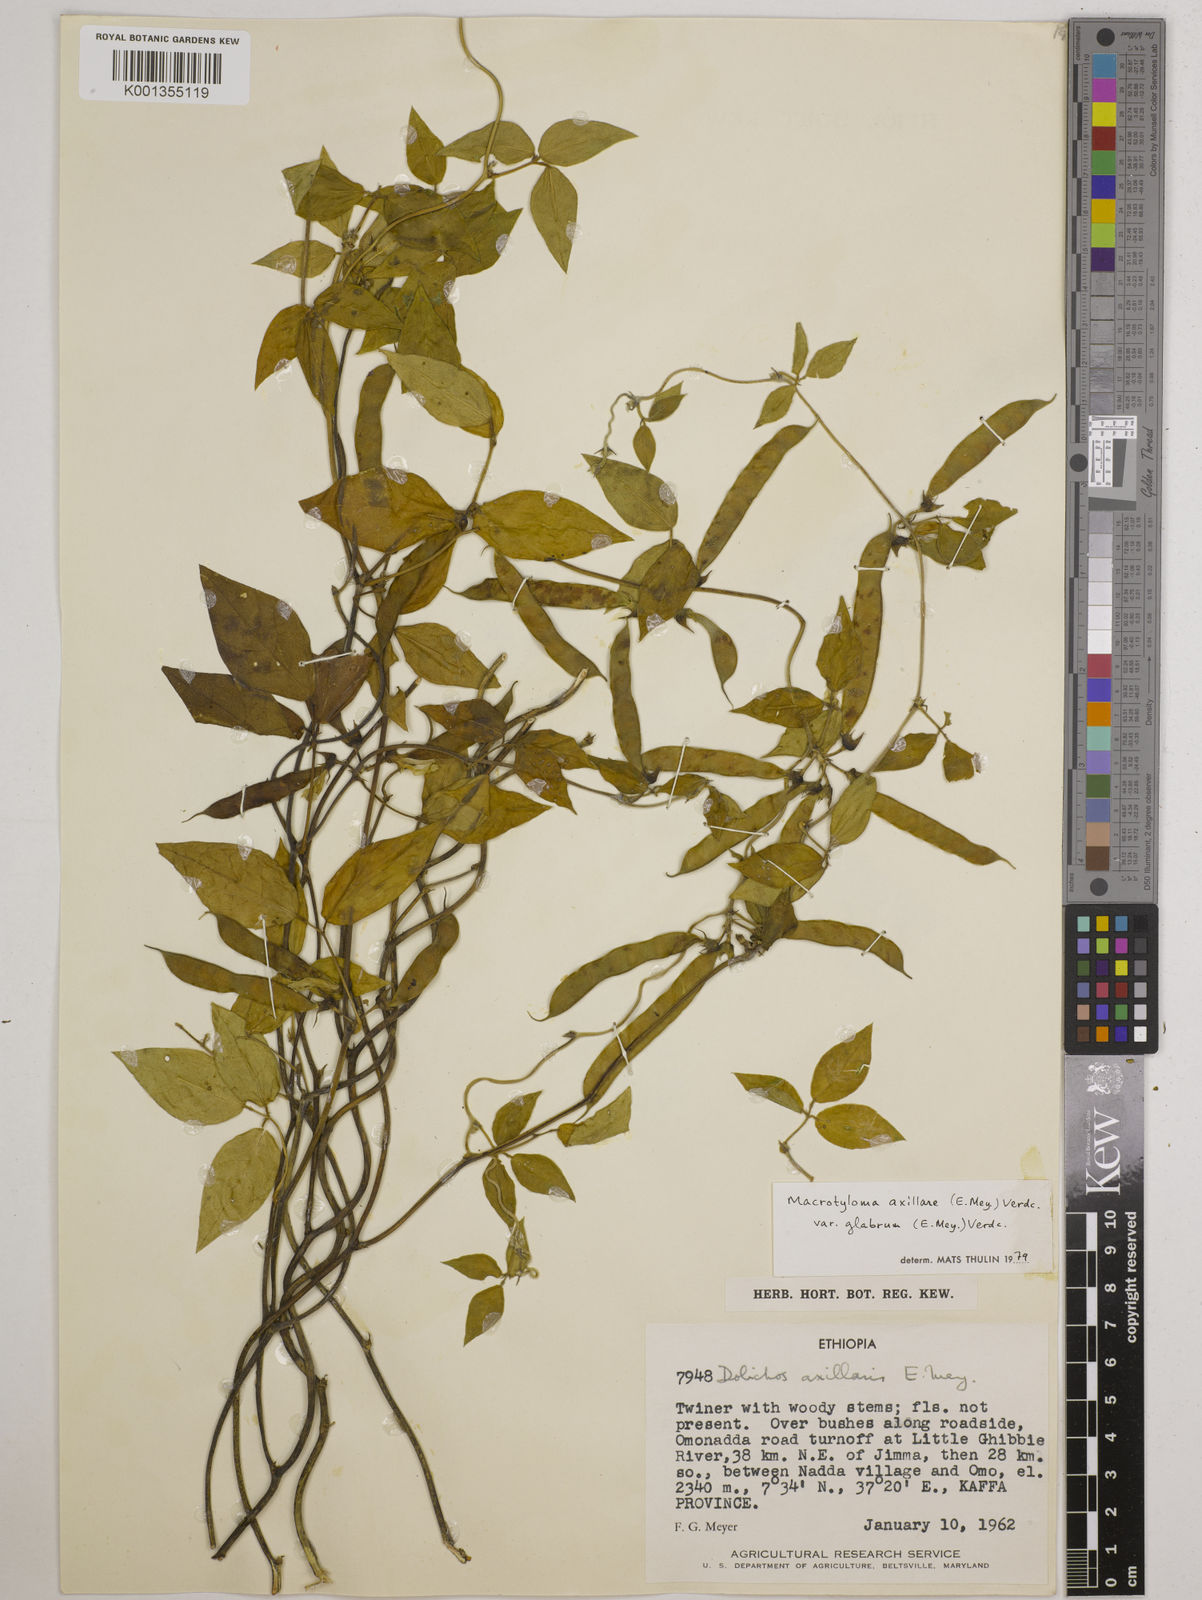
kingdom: Plantae
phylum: Tracheophyta
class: Magnoliopsida
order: Fabales
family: Fabaceae
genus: Macrotyloma
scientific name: Macrotyloma
